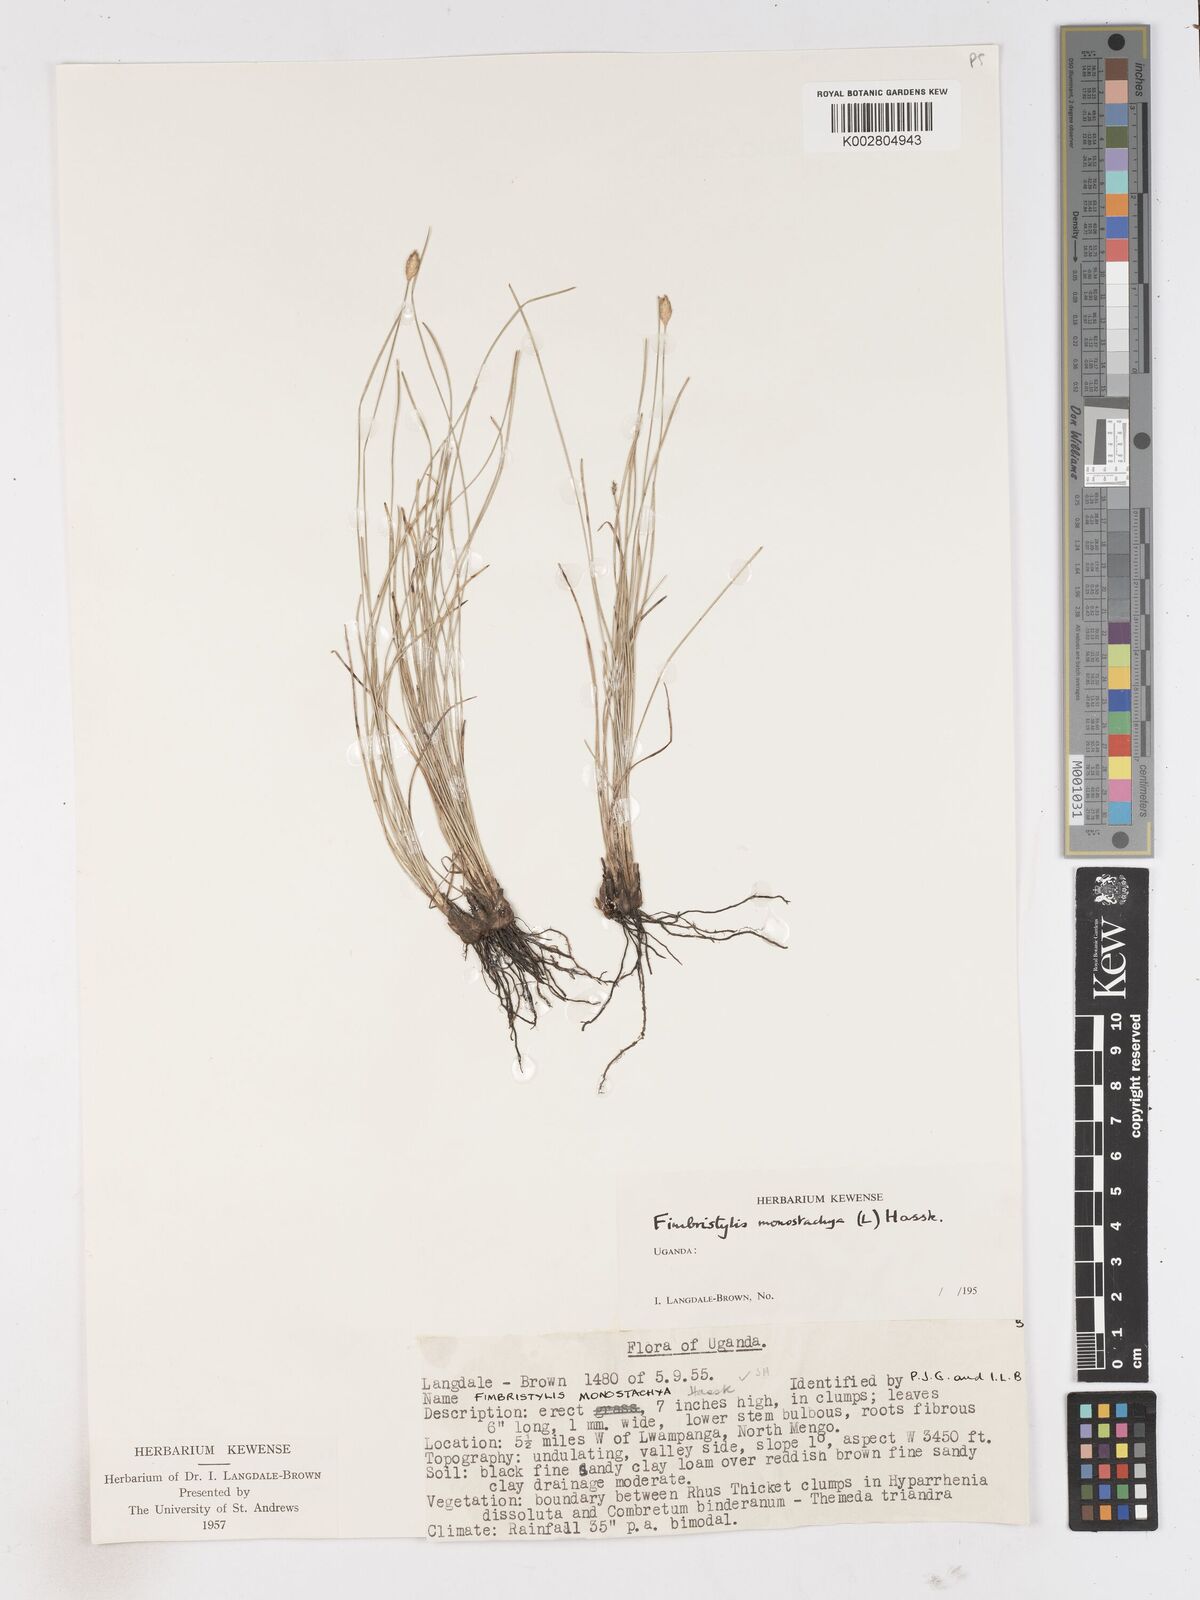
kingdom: Plantae
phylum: Tracheophyta
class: Liliopsida
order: Poales
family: Cyperaceae
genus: Abildgaardia
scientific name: Abildgaardia ovata
